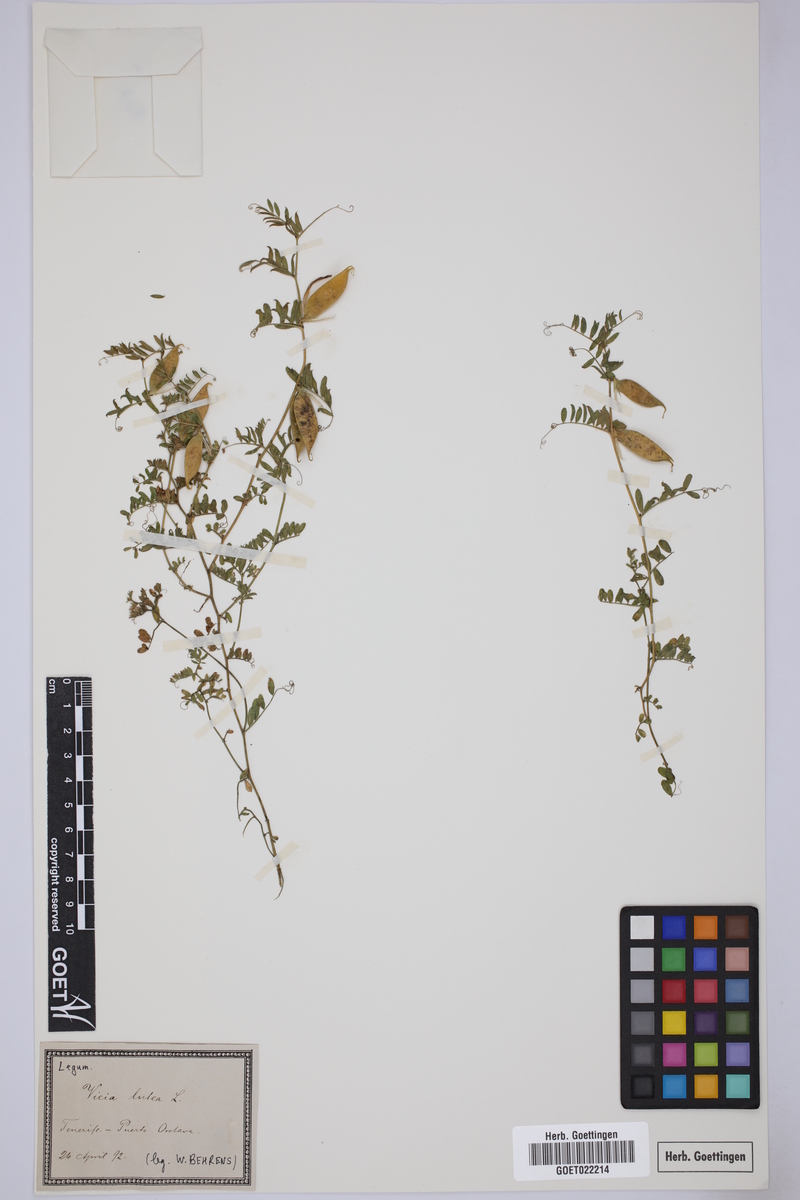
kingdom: Plantae
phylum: Tracheophyta
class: Magnoliopsida
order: Fabales
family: Fabaceae
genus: Vicia
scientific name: Vicia lutea
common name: Smooth yellow vetch
